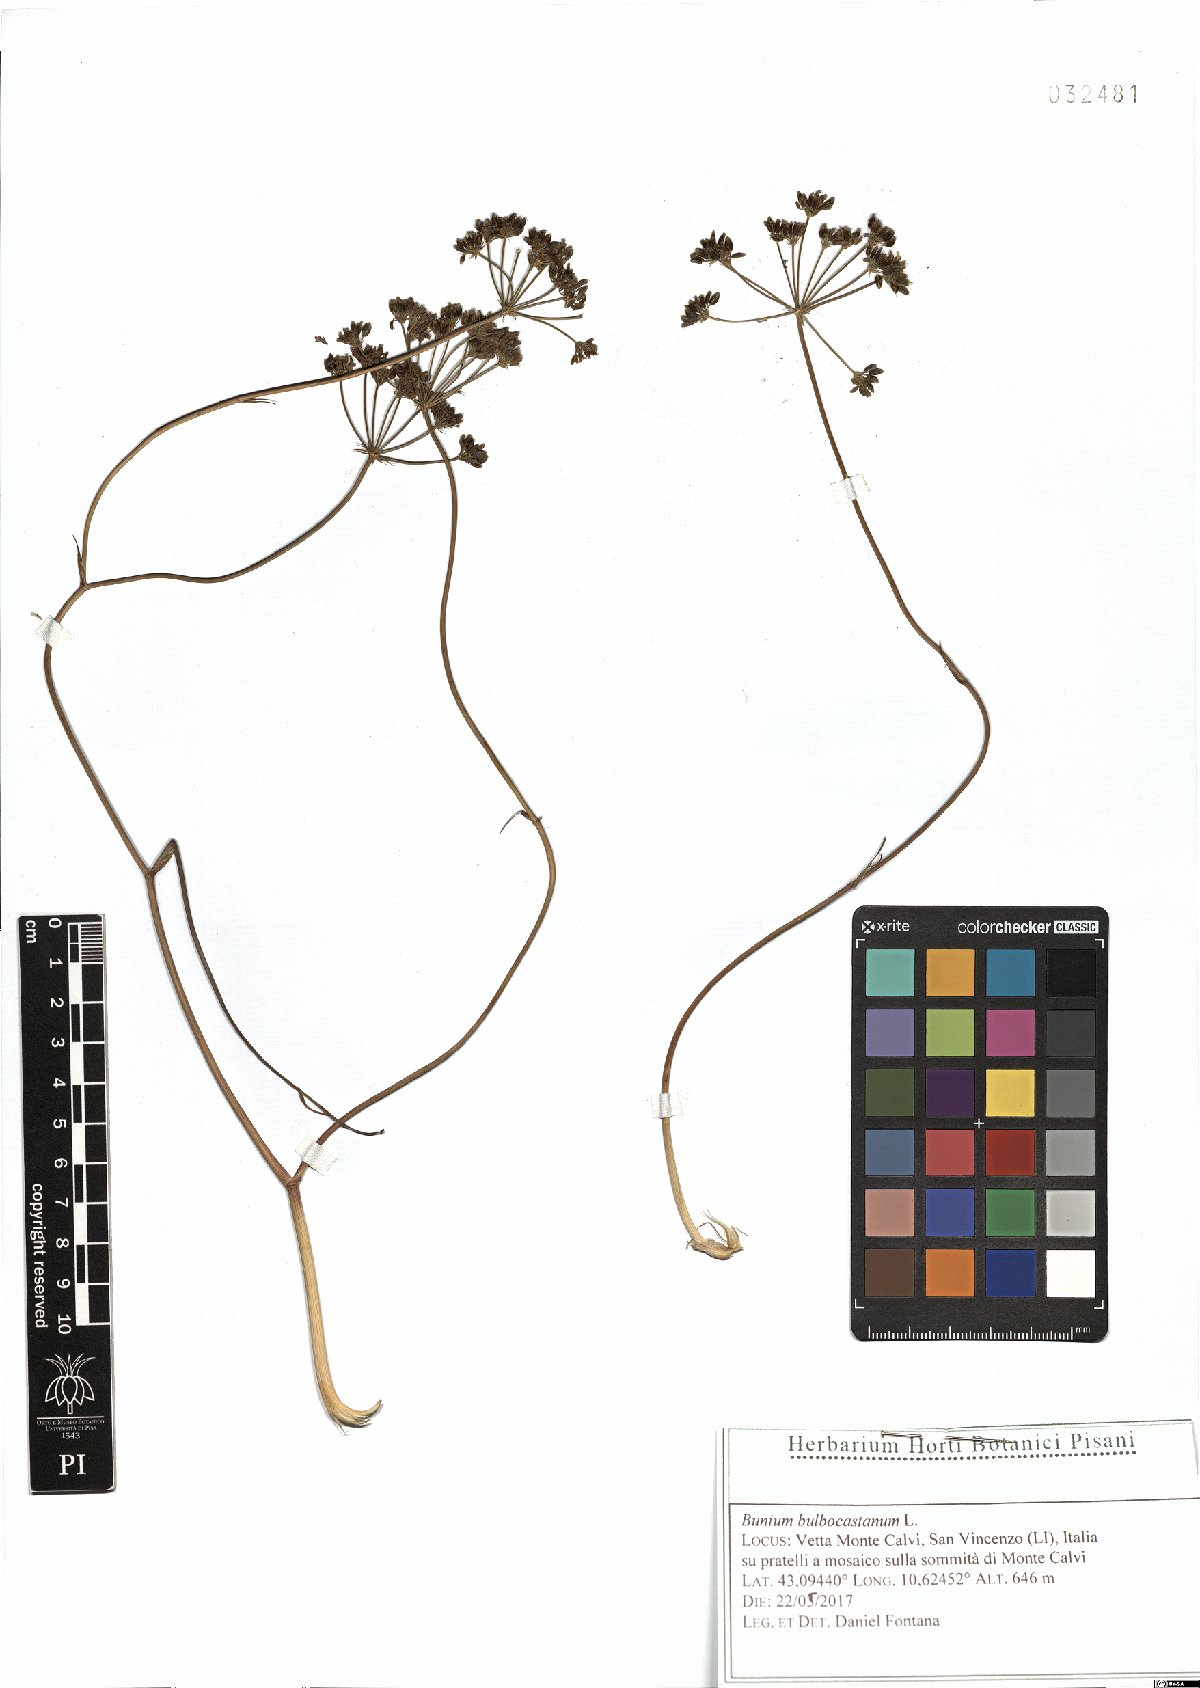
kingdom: Plantae
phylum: Tracheophyta
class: Magnoliopsida
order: Apiales
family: Apiaceae
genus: Bunium
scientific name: Bunium bulbocastanum
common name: Great pignut
